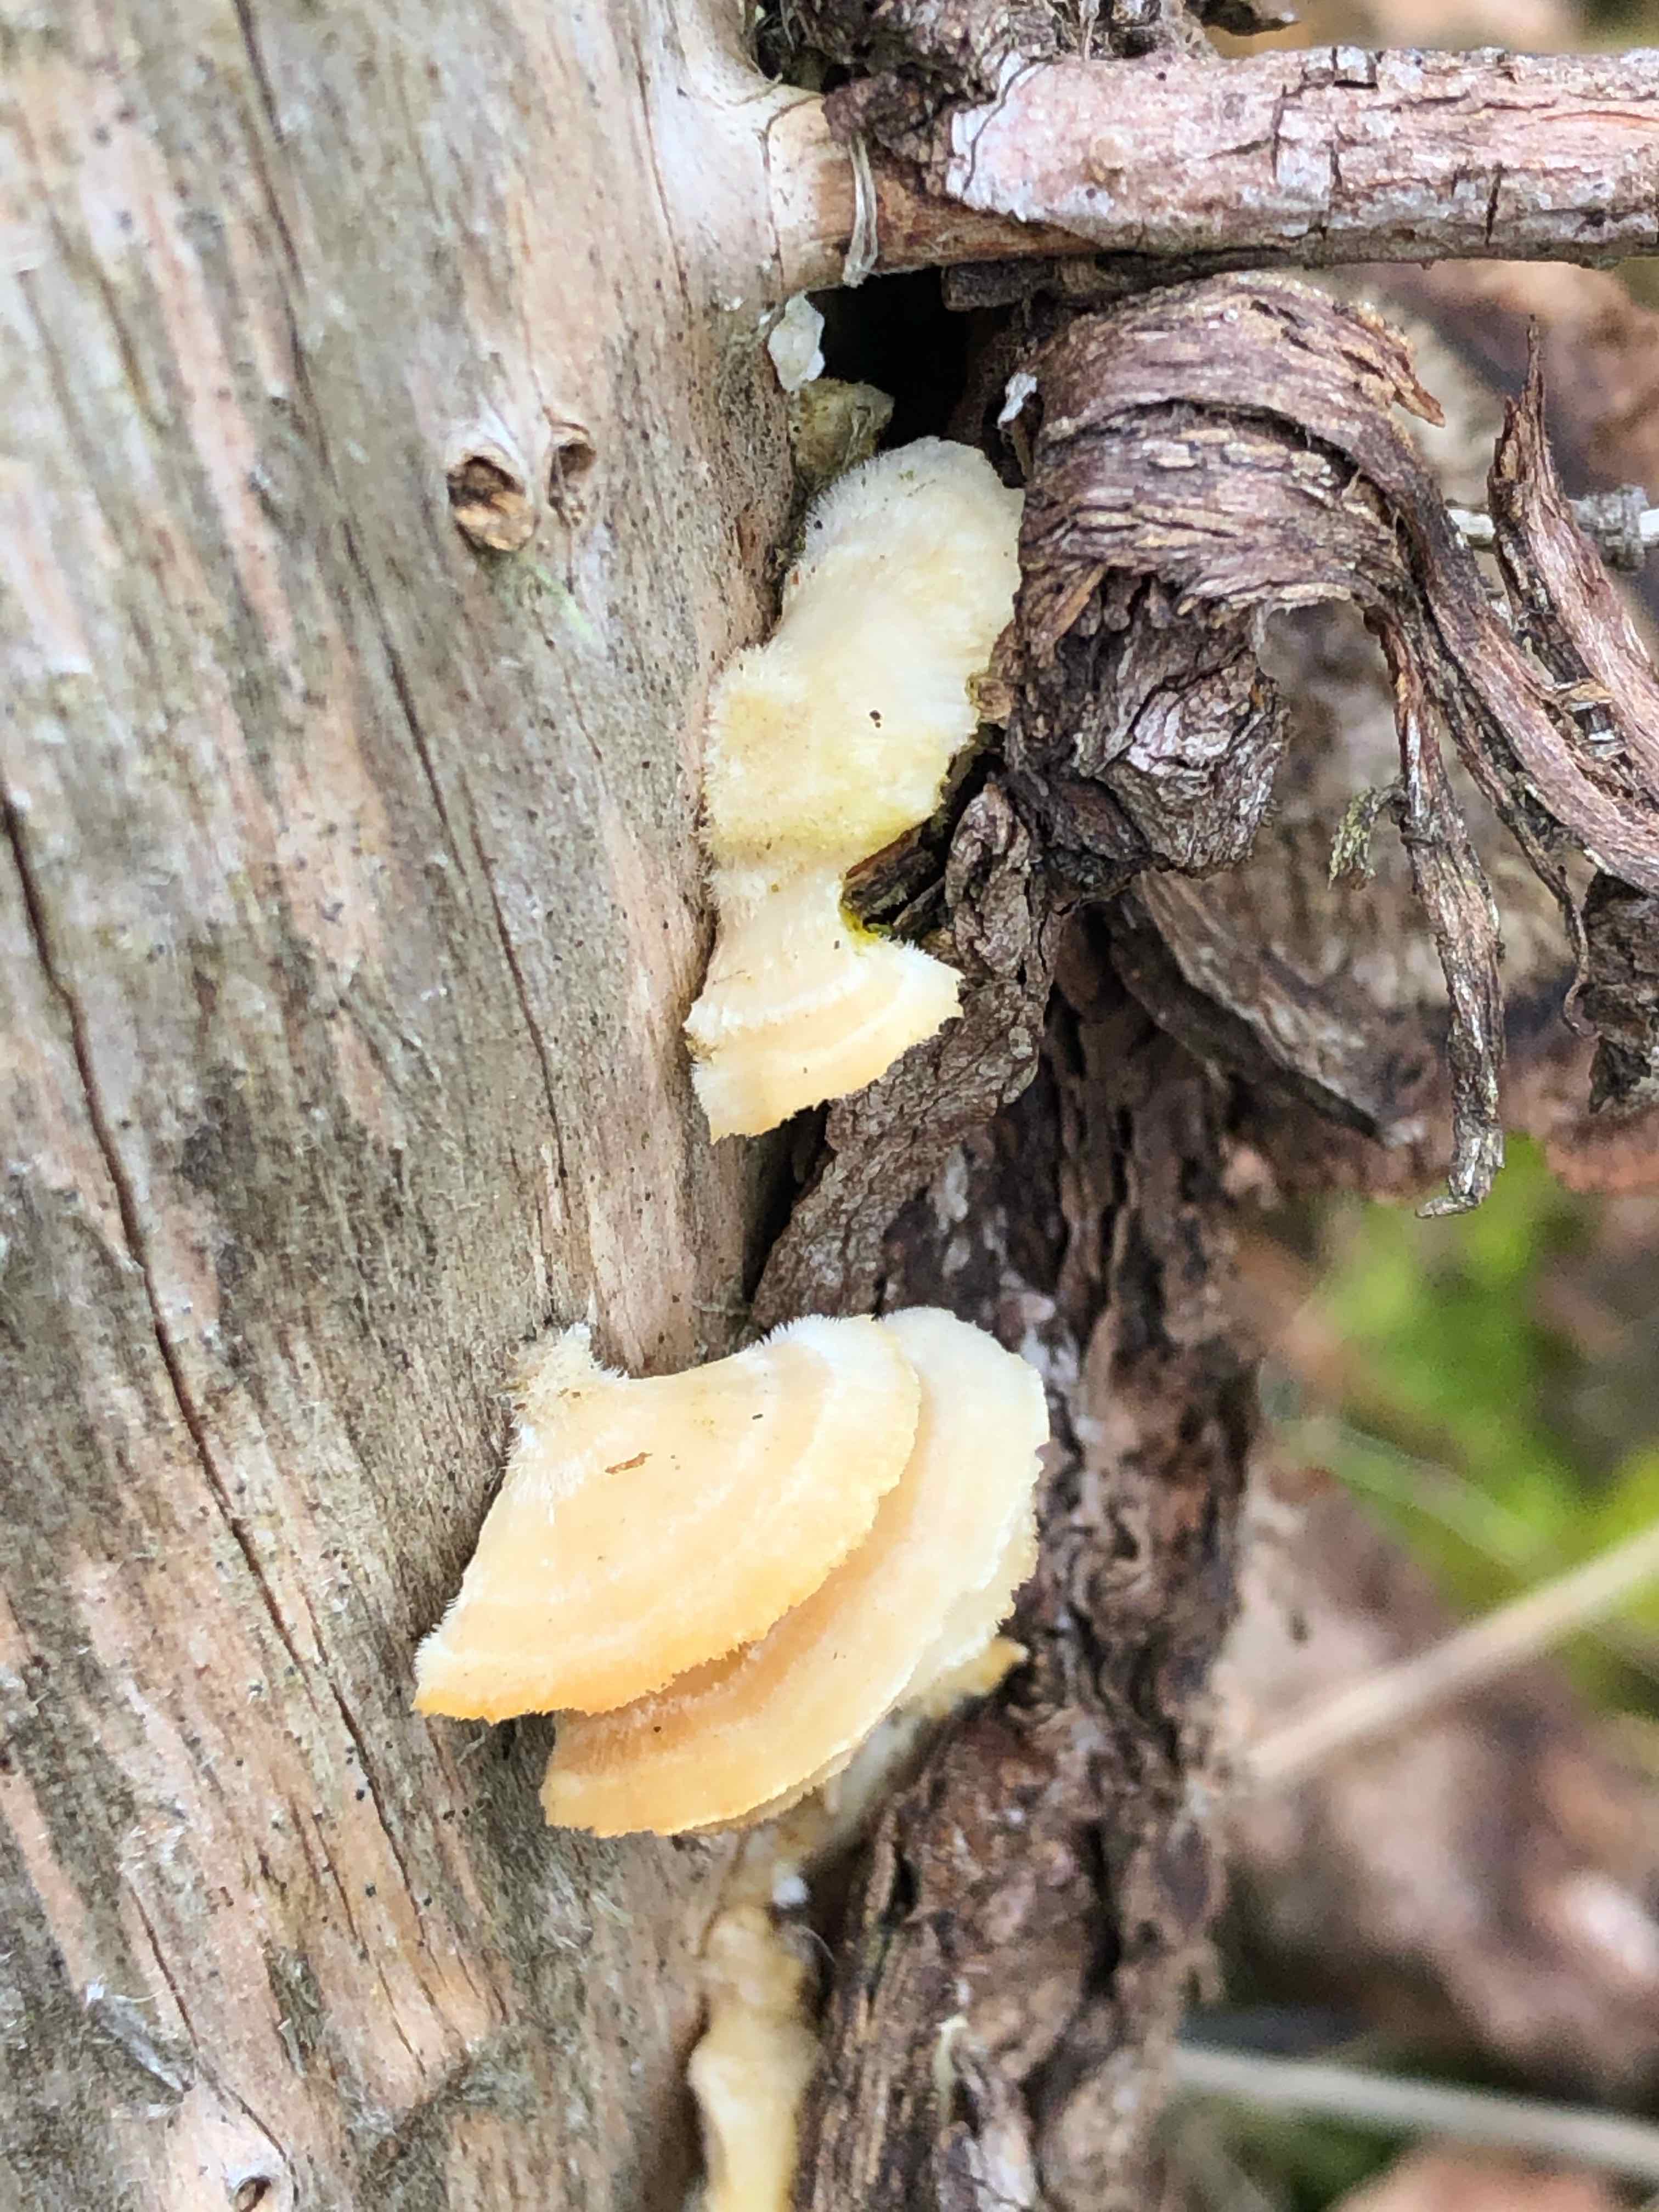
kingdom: Fungi
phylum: Basidiomycota
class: Agaricomycetes
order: Polyporales
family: Polyporaceae
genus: Trametes
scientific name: Trametes
